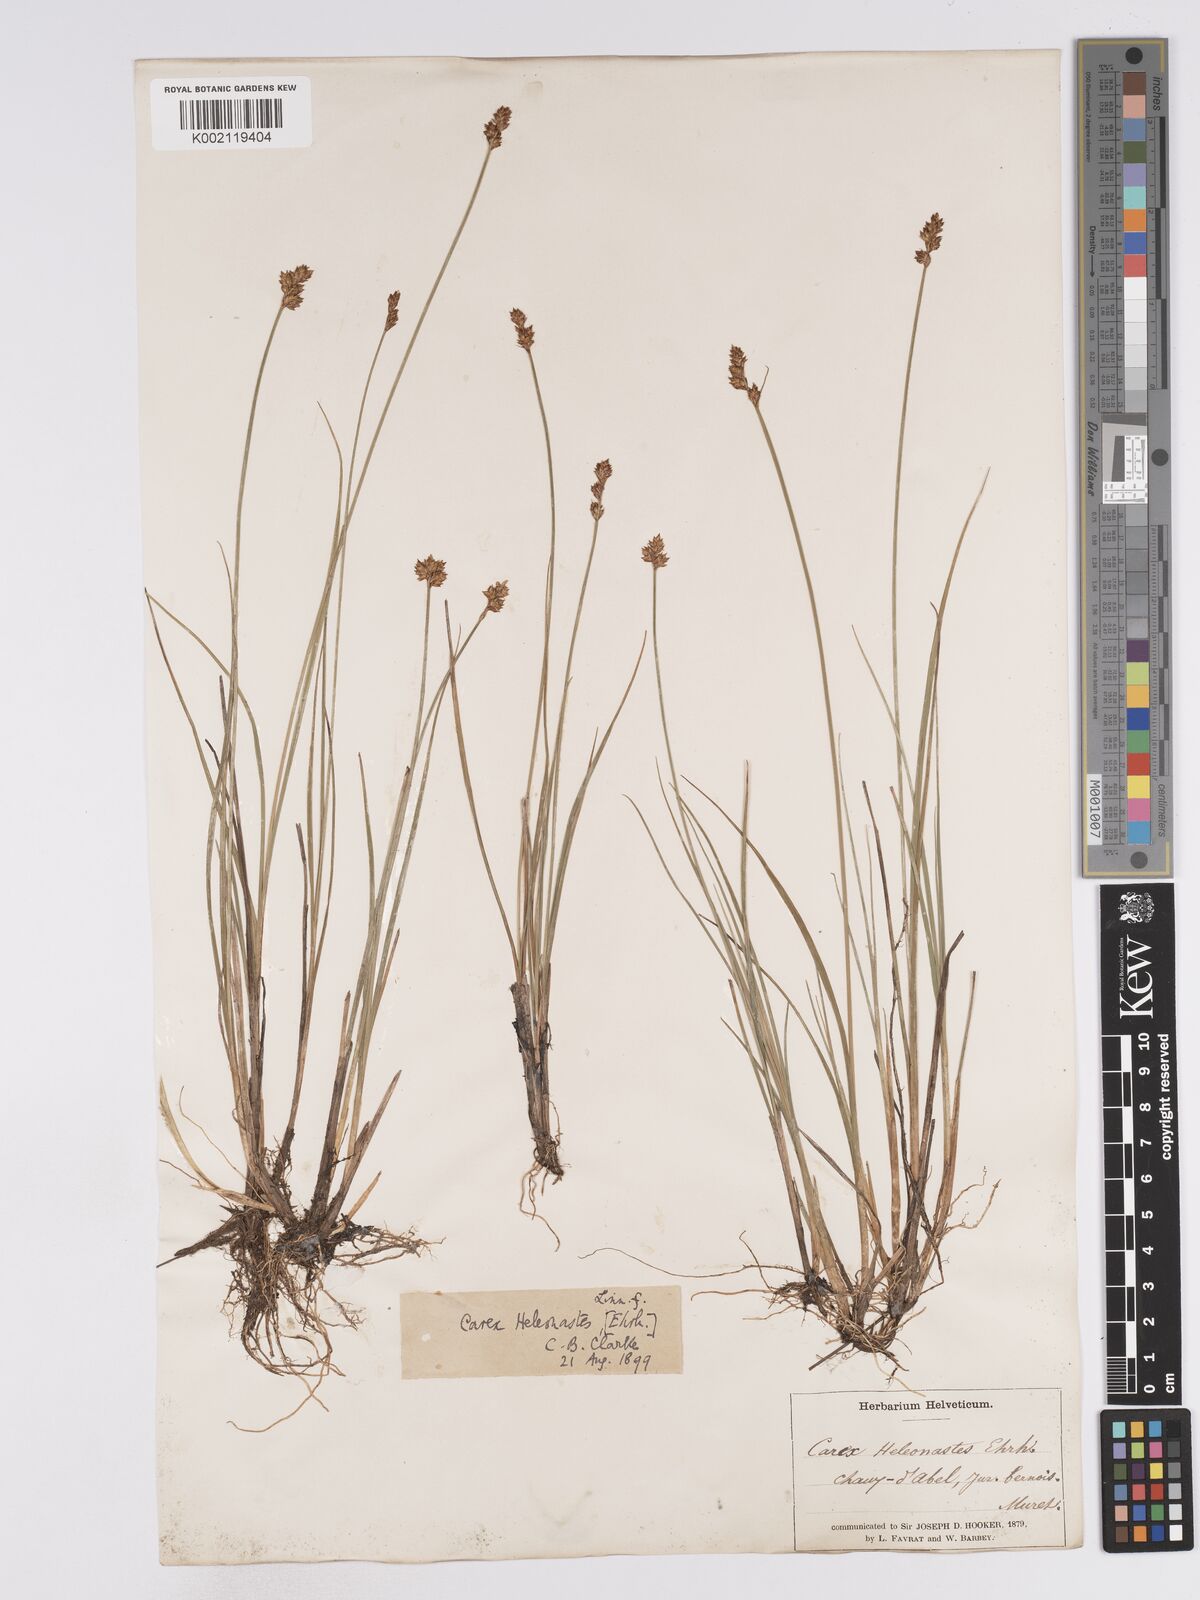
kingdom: Plantae
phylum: Tracheophyta
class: Liliopsida
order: Poales
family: Cyperaceae
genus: Carex
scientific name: Carex heleonastes
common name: Hudson bay sedge
